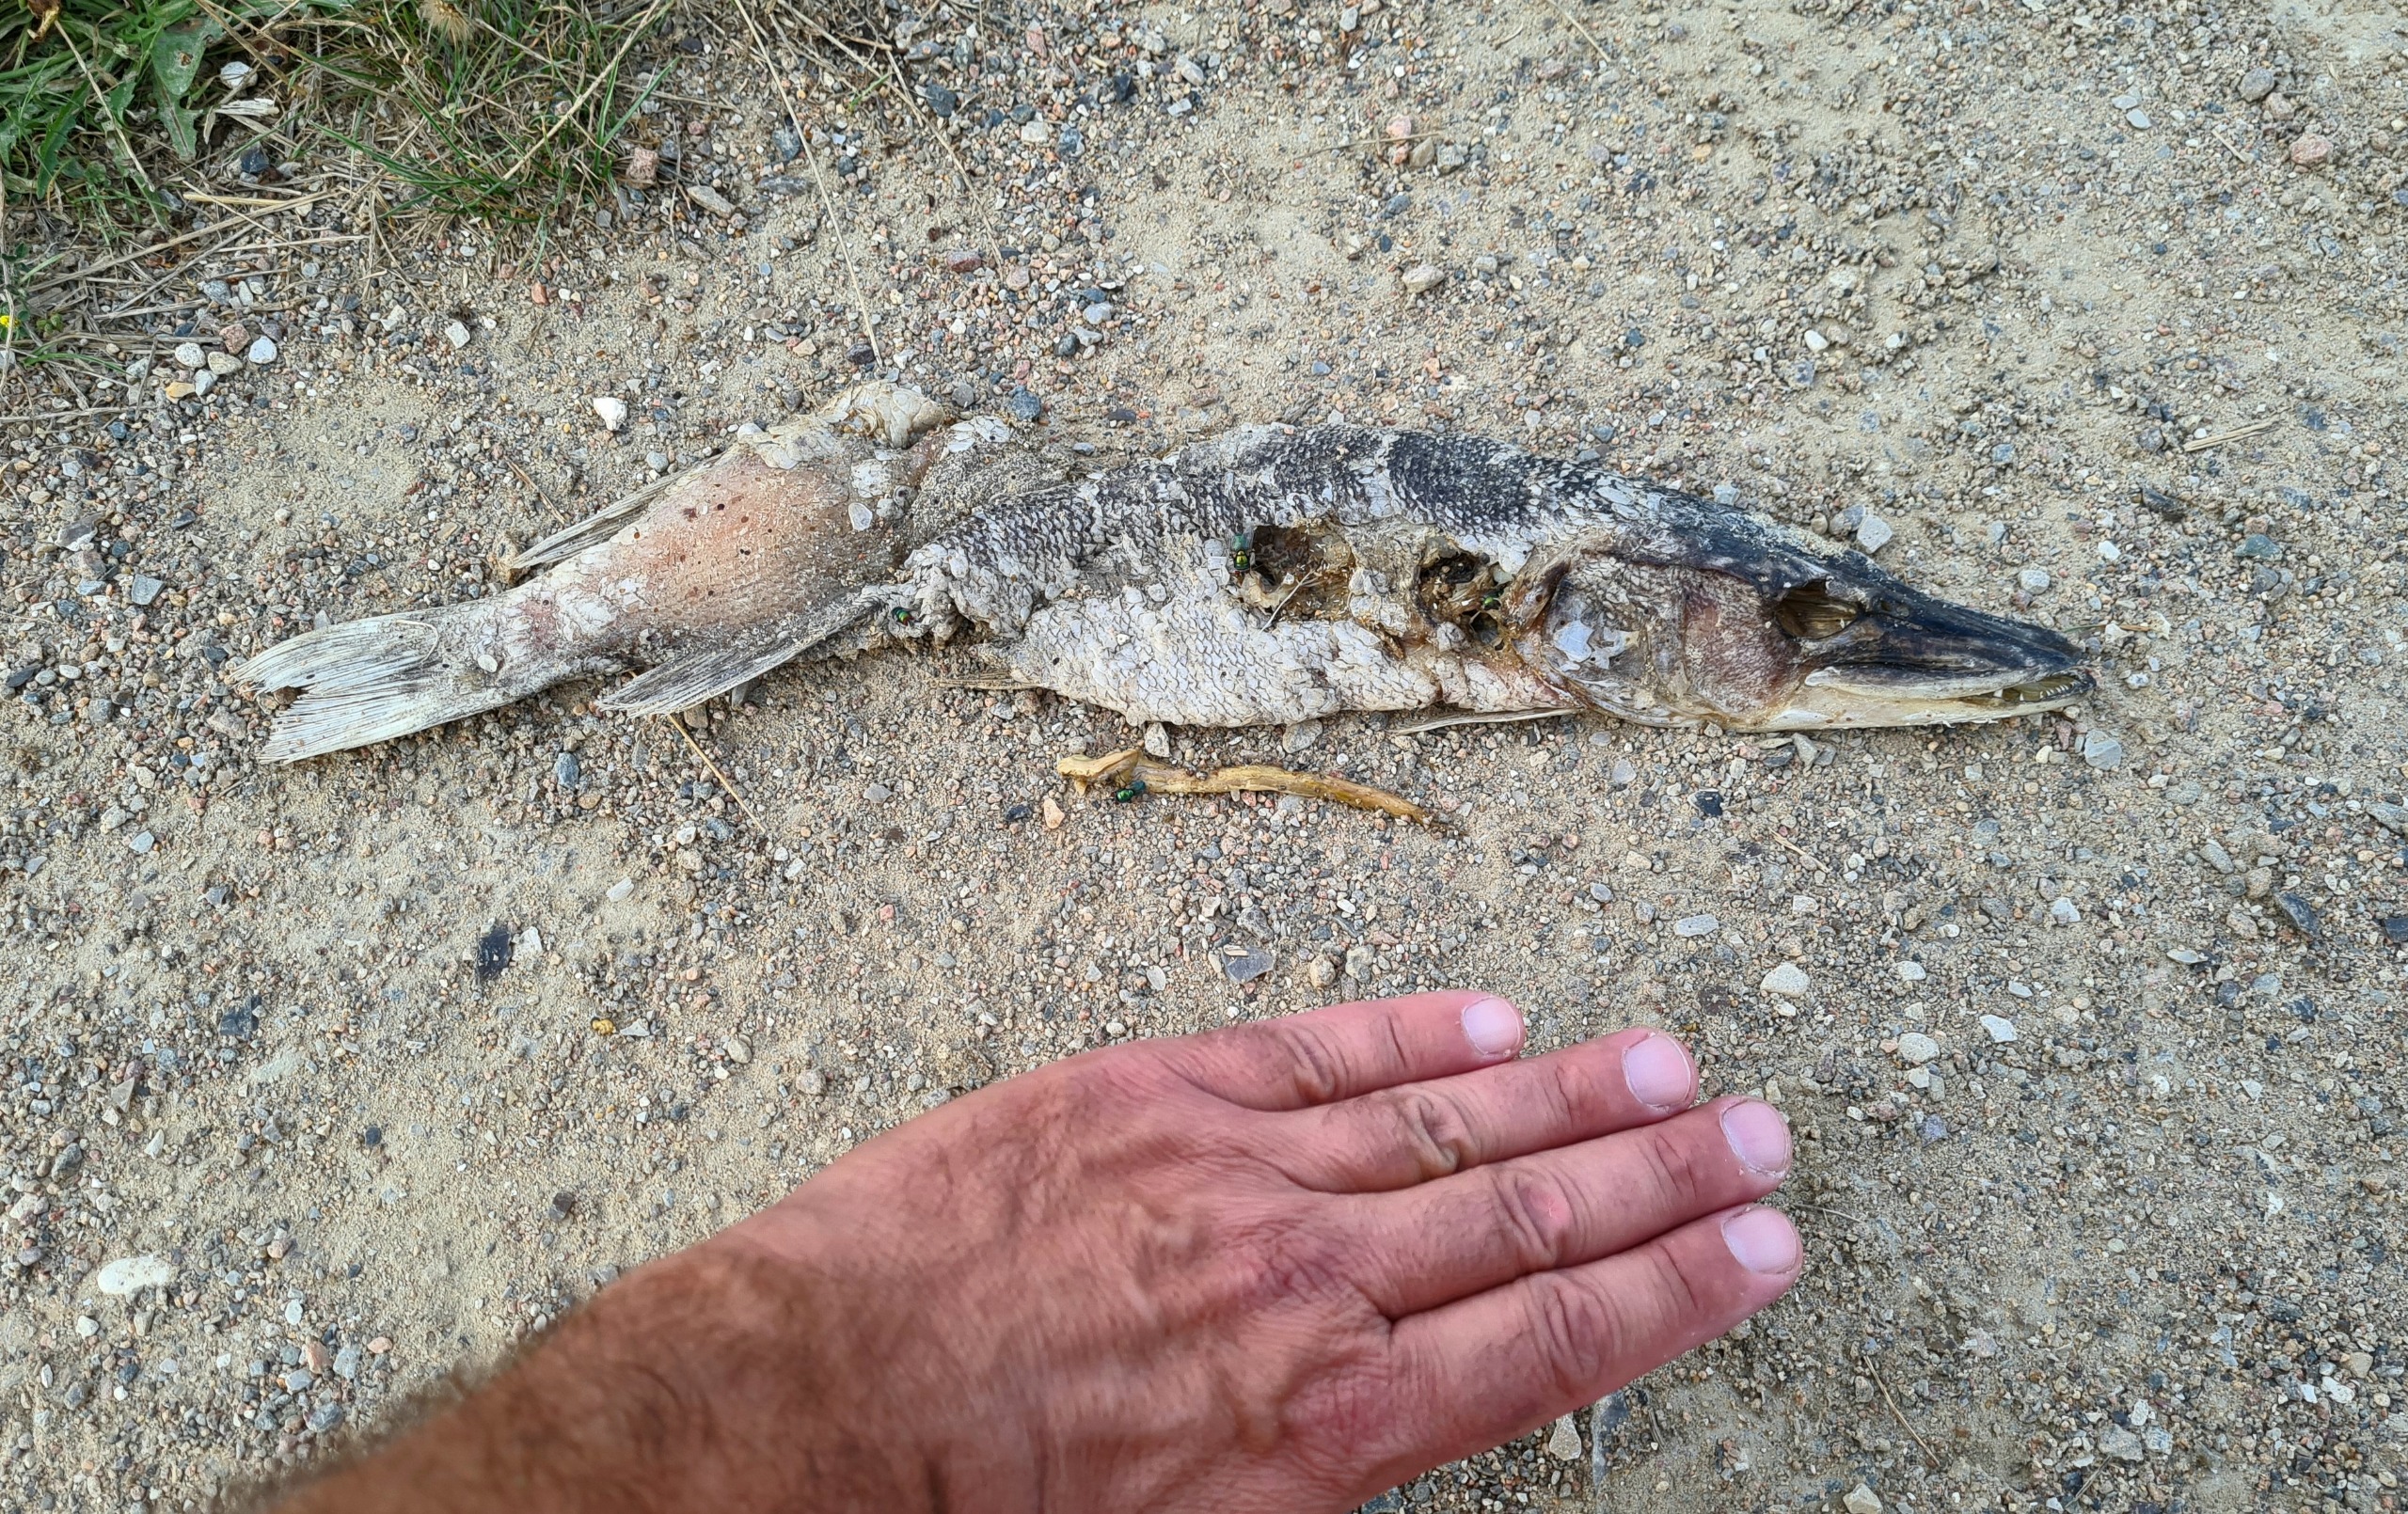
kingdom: Animalia
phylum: Chordata
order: Esociformes
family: Esocidae
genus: Esox
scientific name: Esox lucius
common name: Gedde
